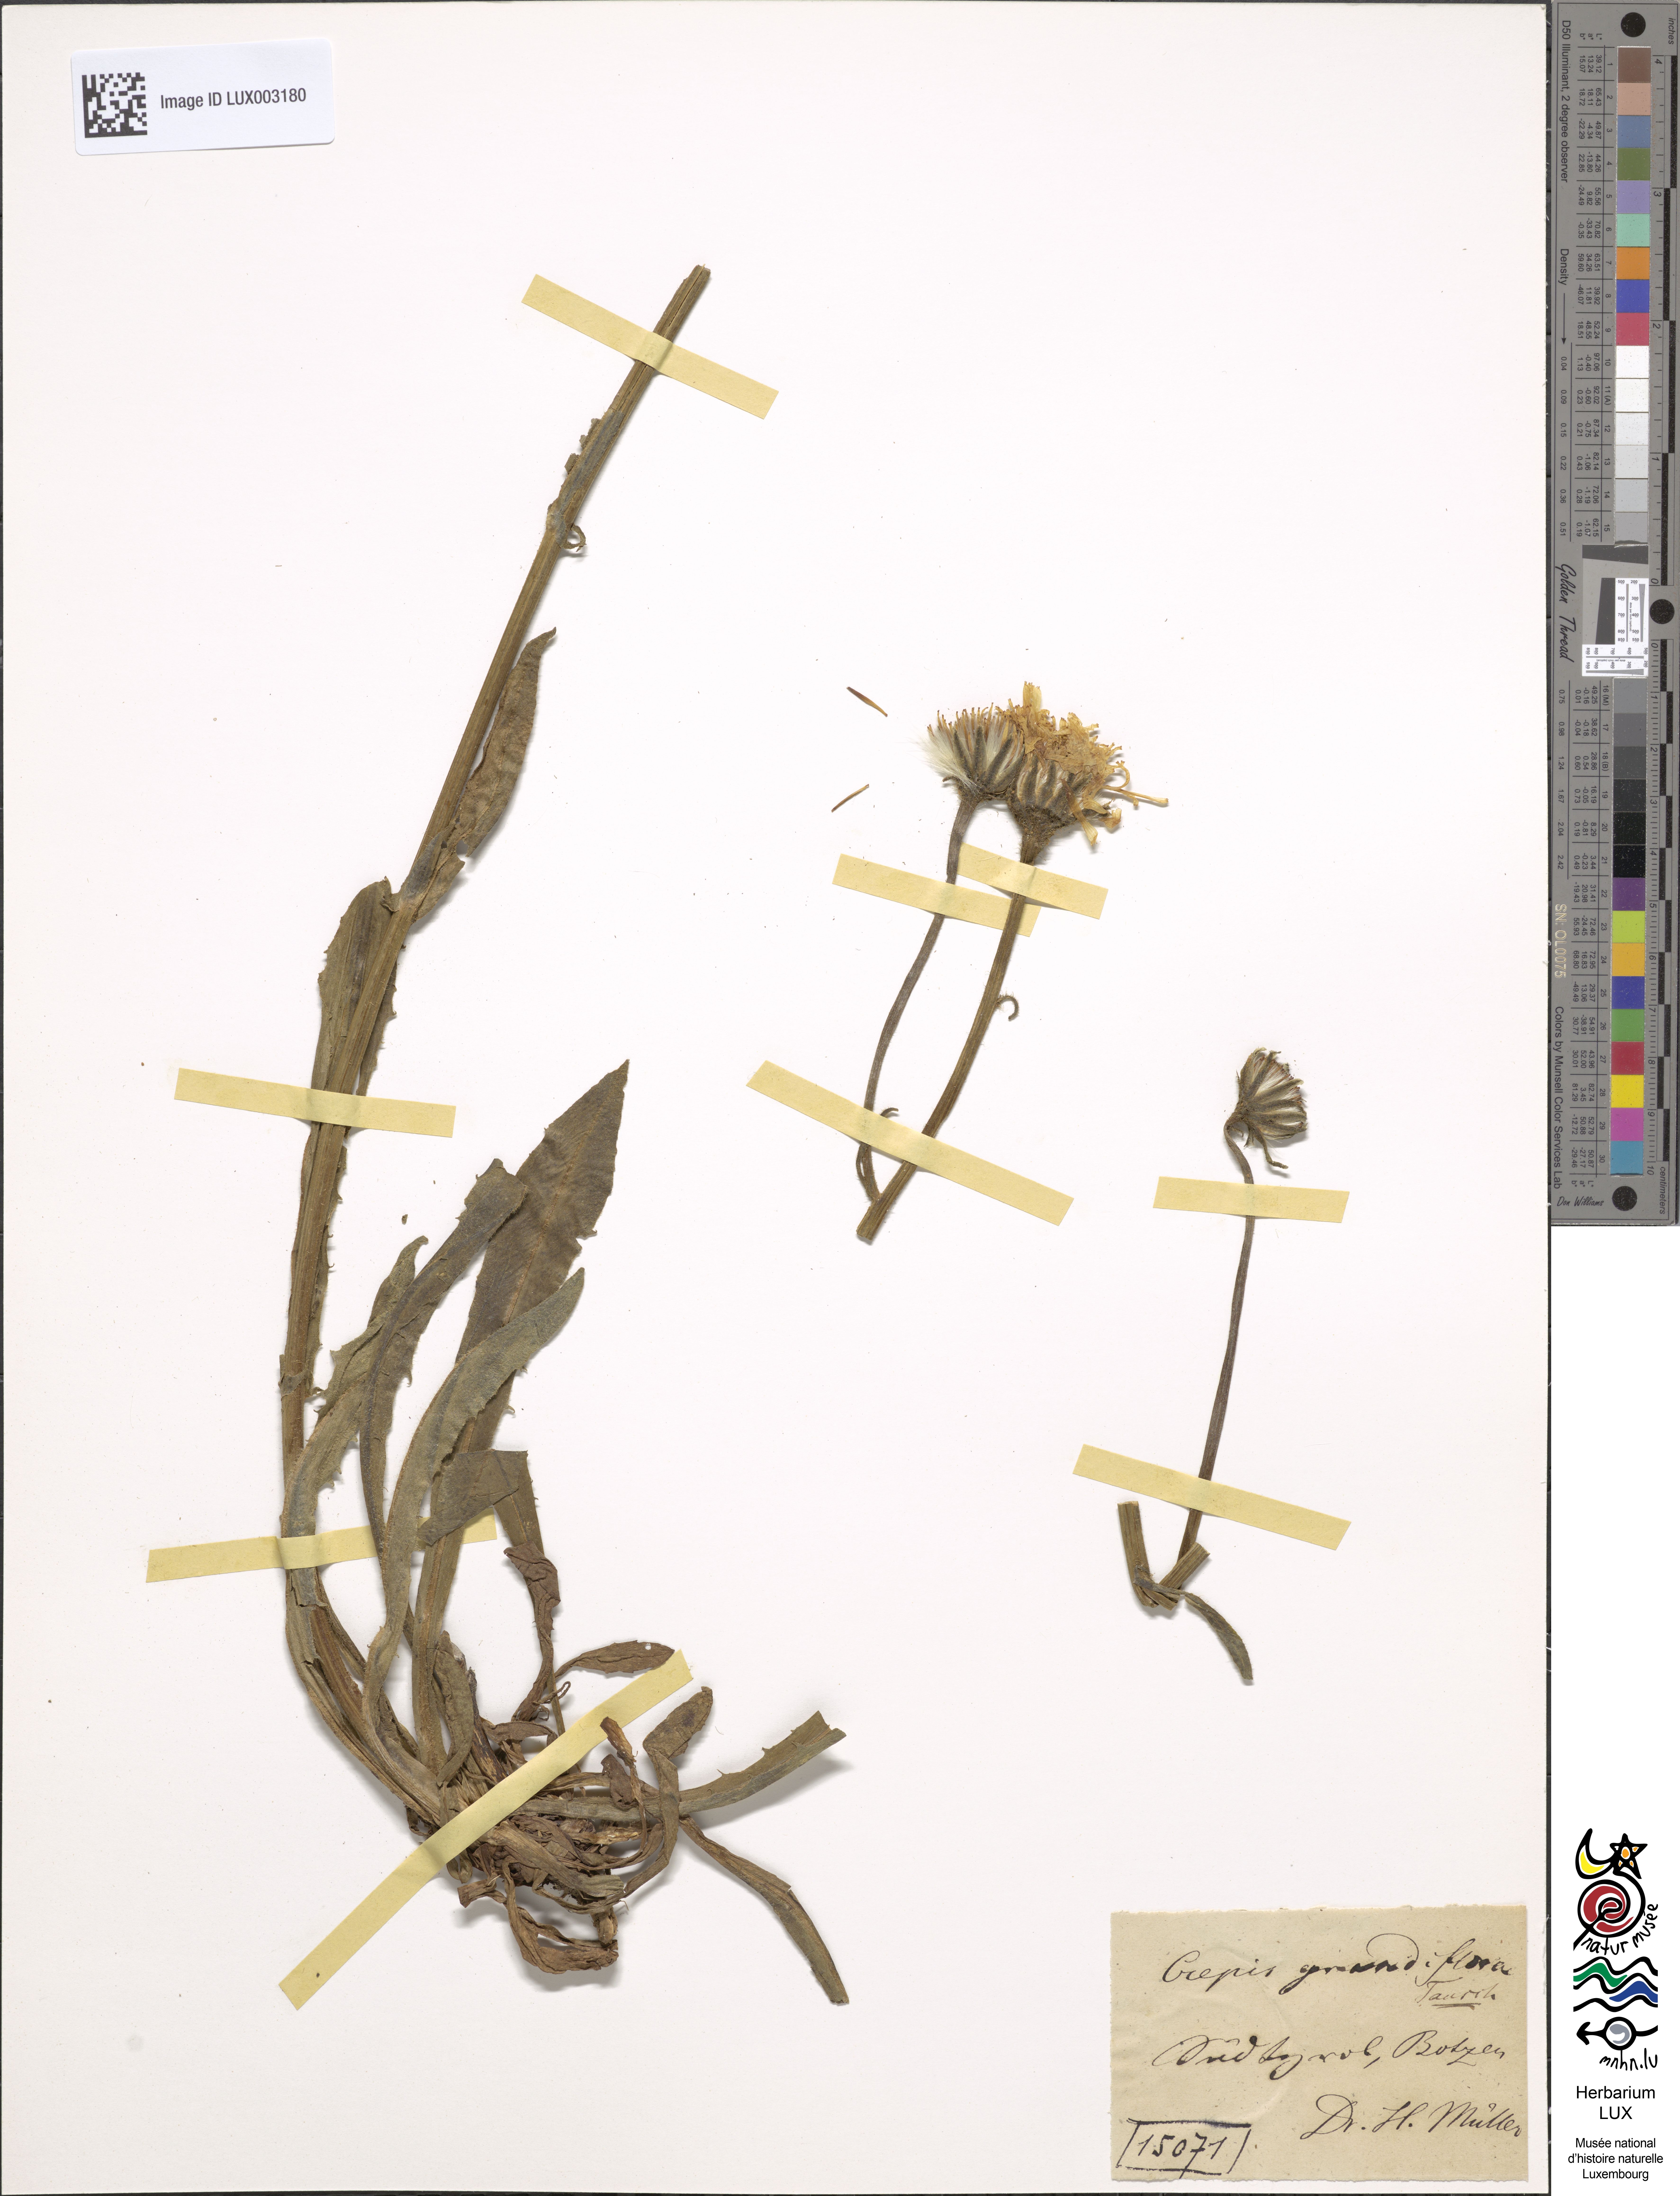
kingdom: Plantae
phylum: Tracheophyta
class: Magnoliopsida
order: Asterales
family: Asteraceae
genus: Crepis
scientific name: Crepis pyrenaica
